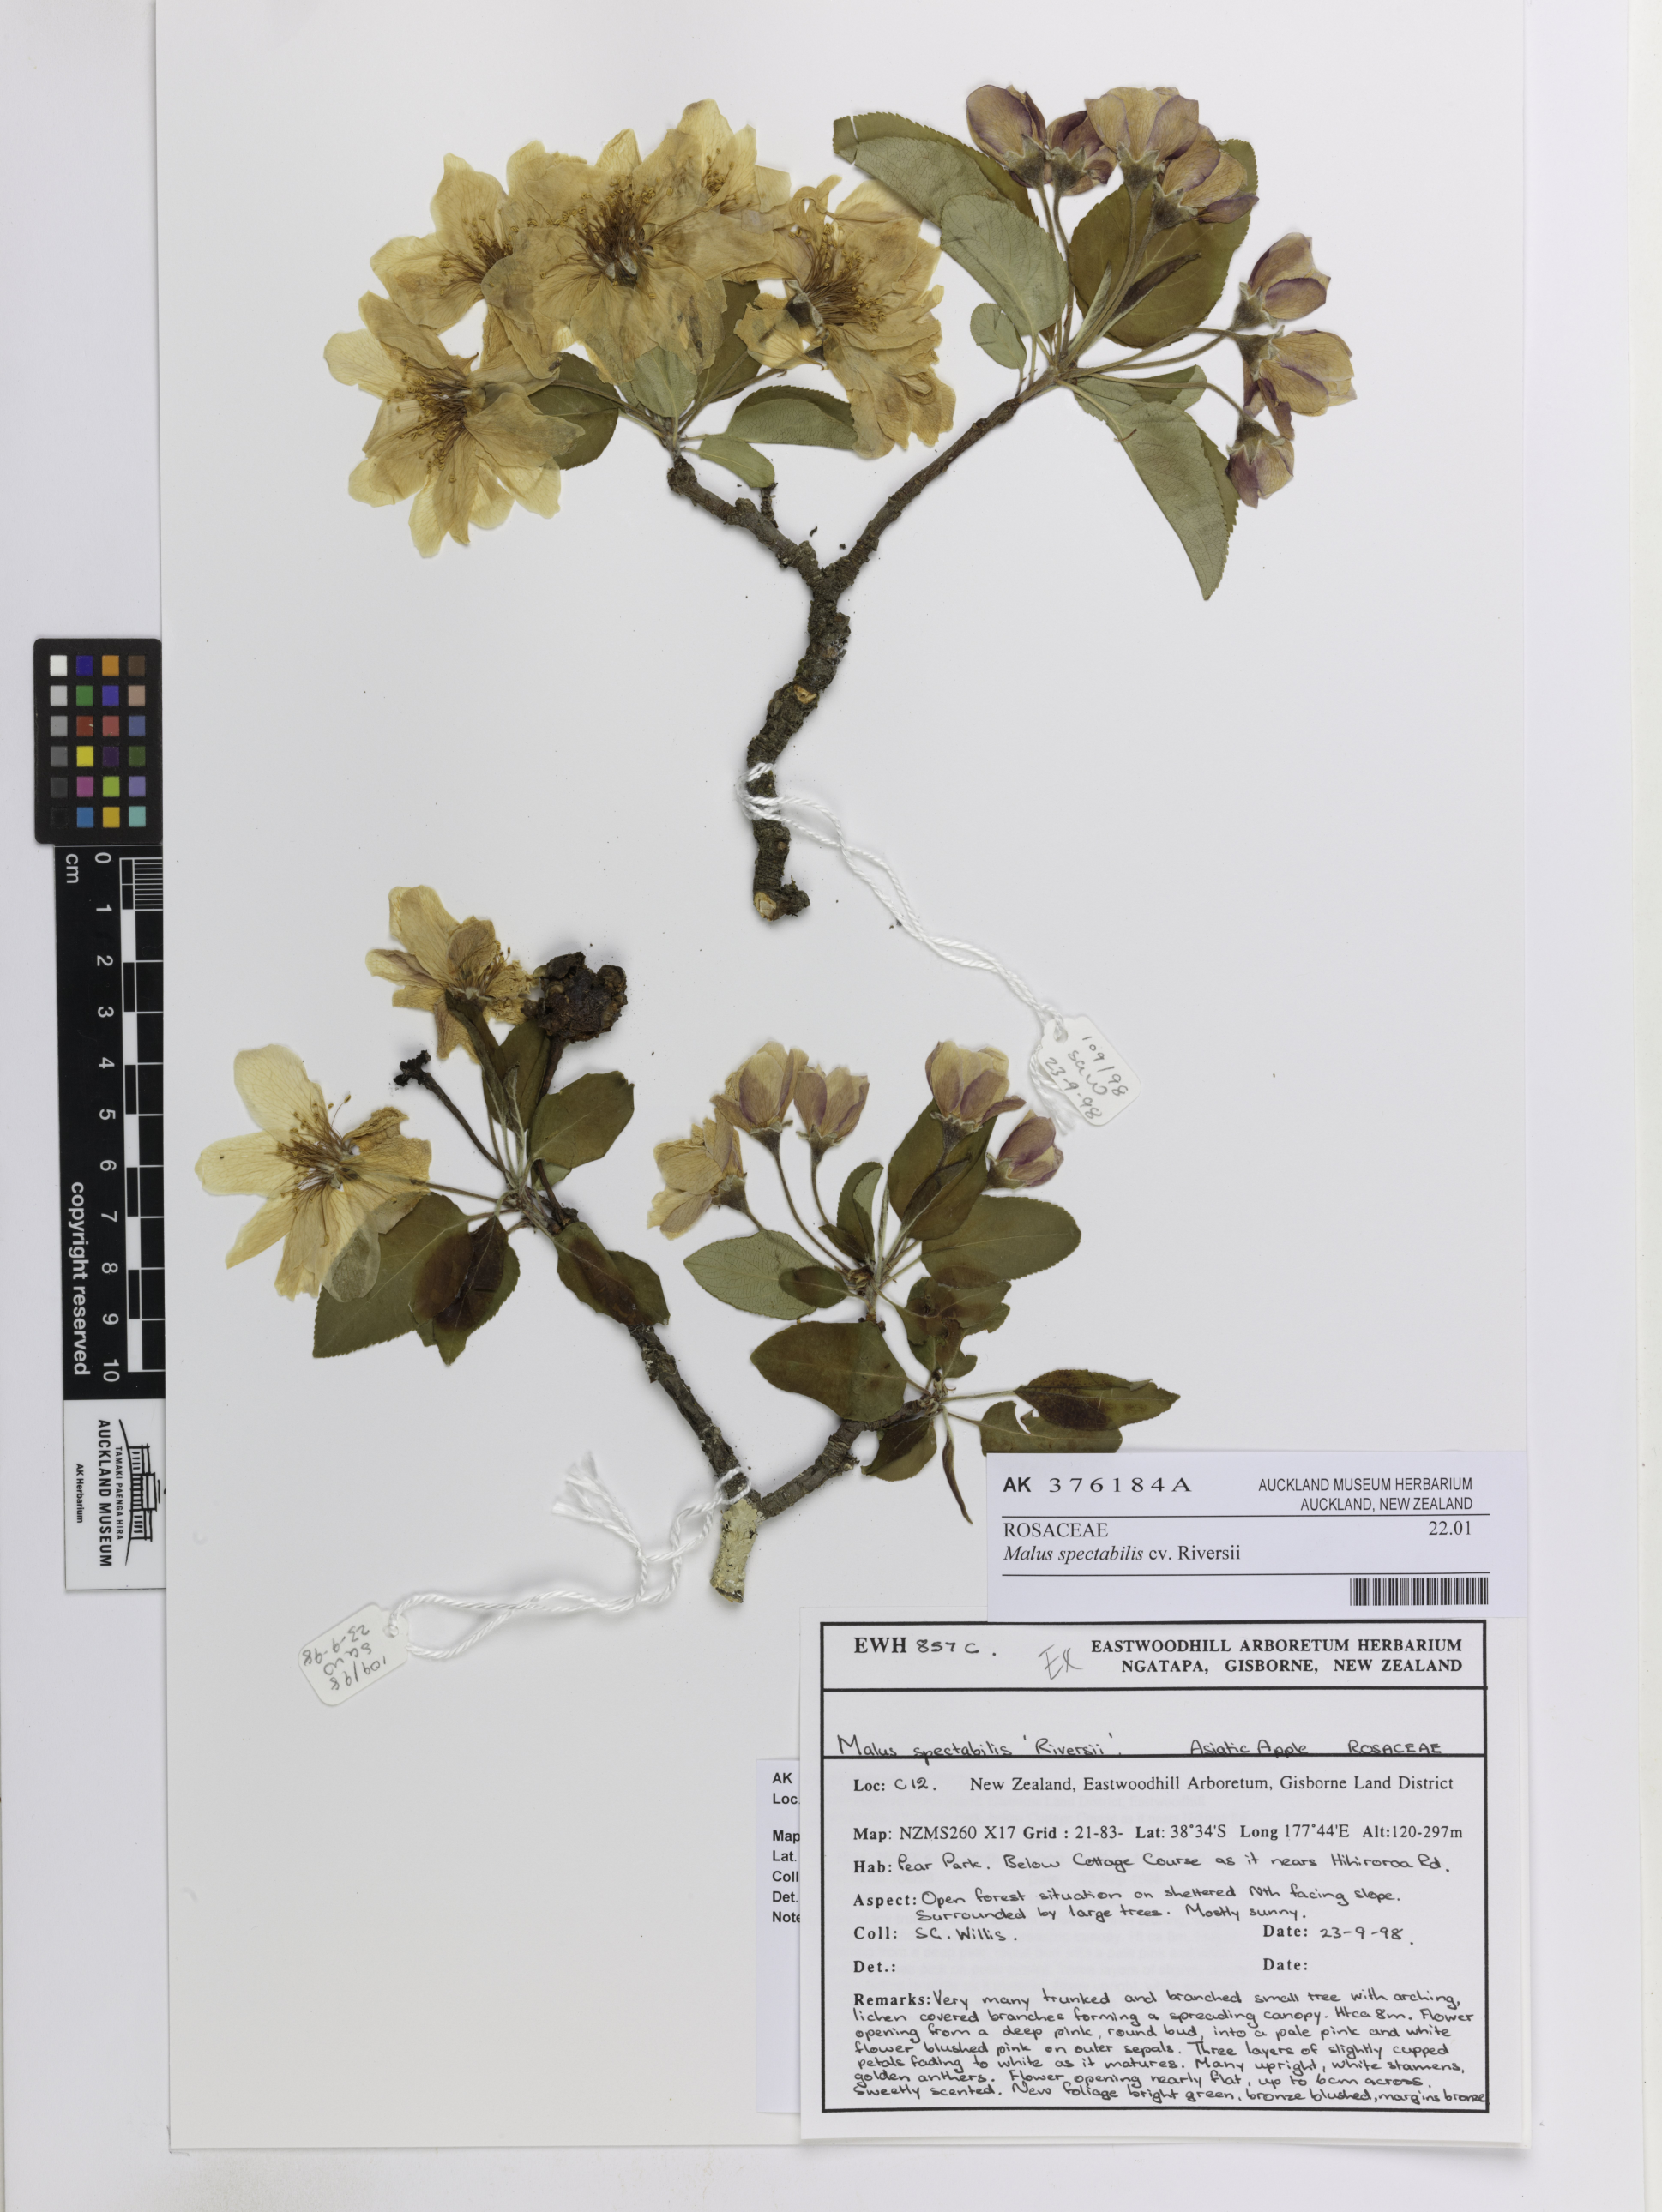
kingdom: Plantae
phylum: Tracheophyta
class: Magnoliopsida
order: Rosales
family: Rosaceae
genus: Malus
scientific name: Malus spectabilis
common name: Asiatic apple
